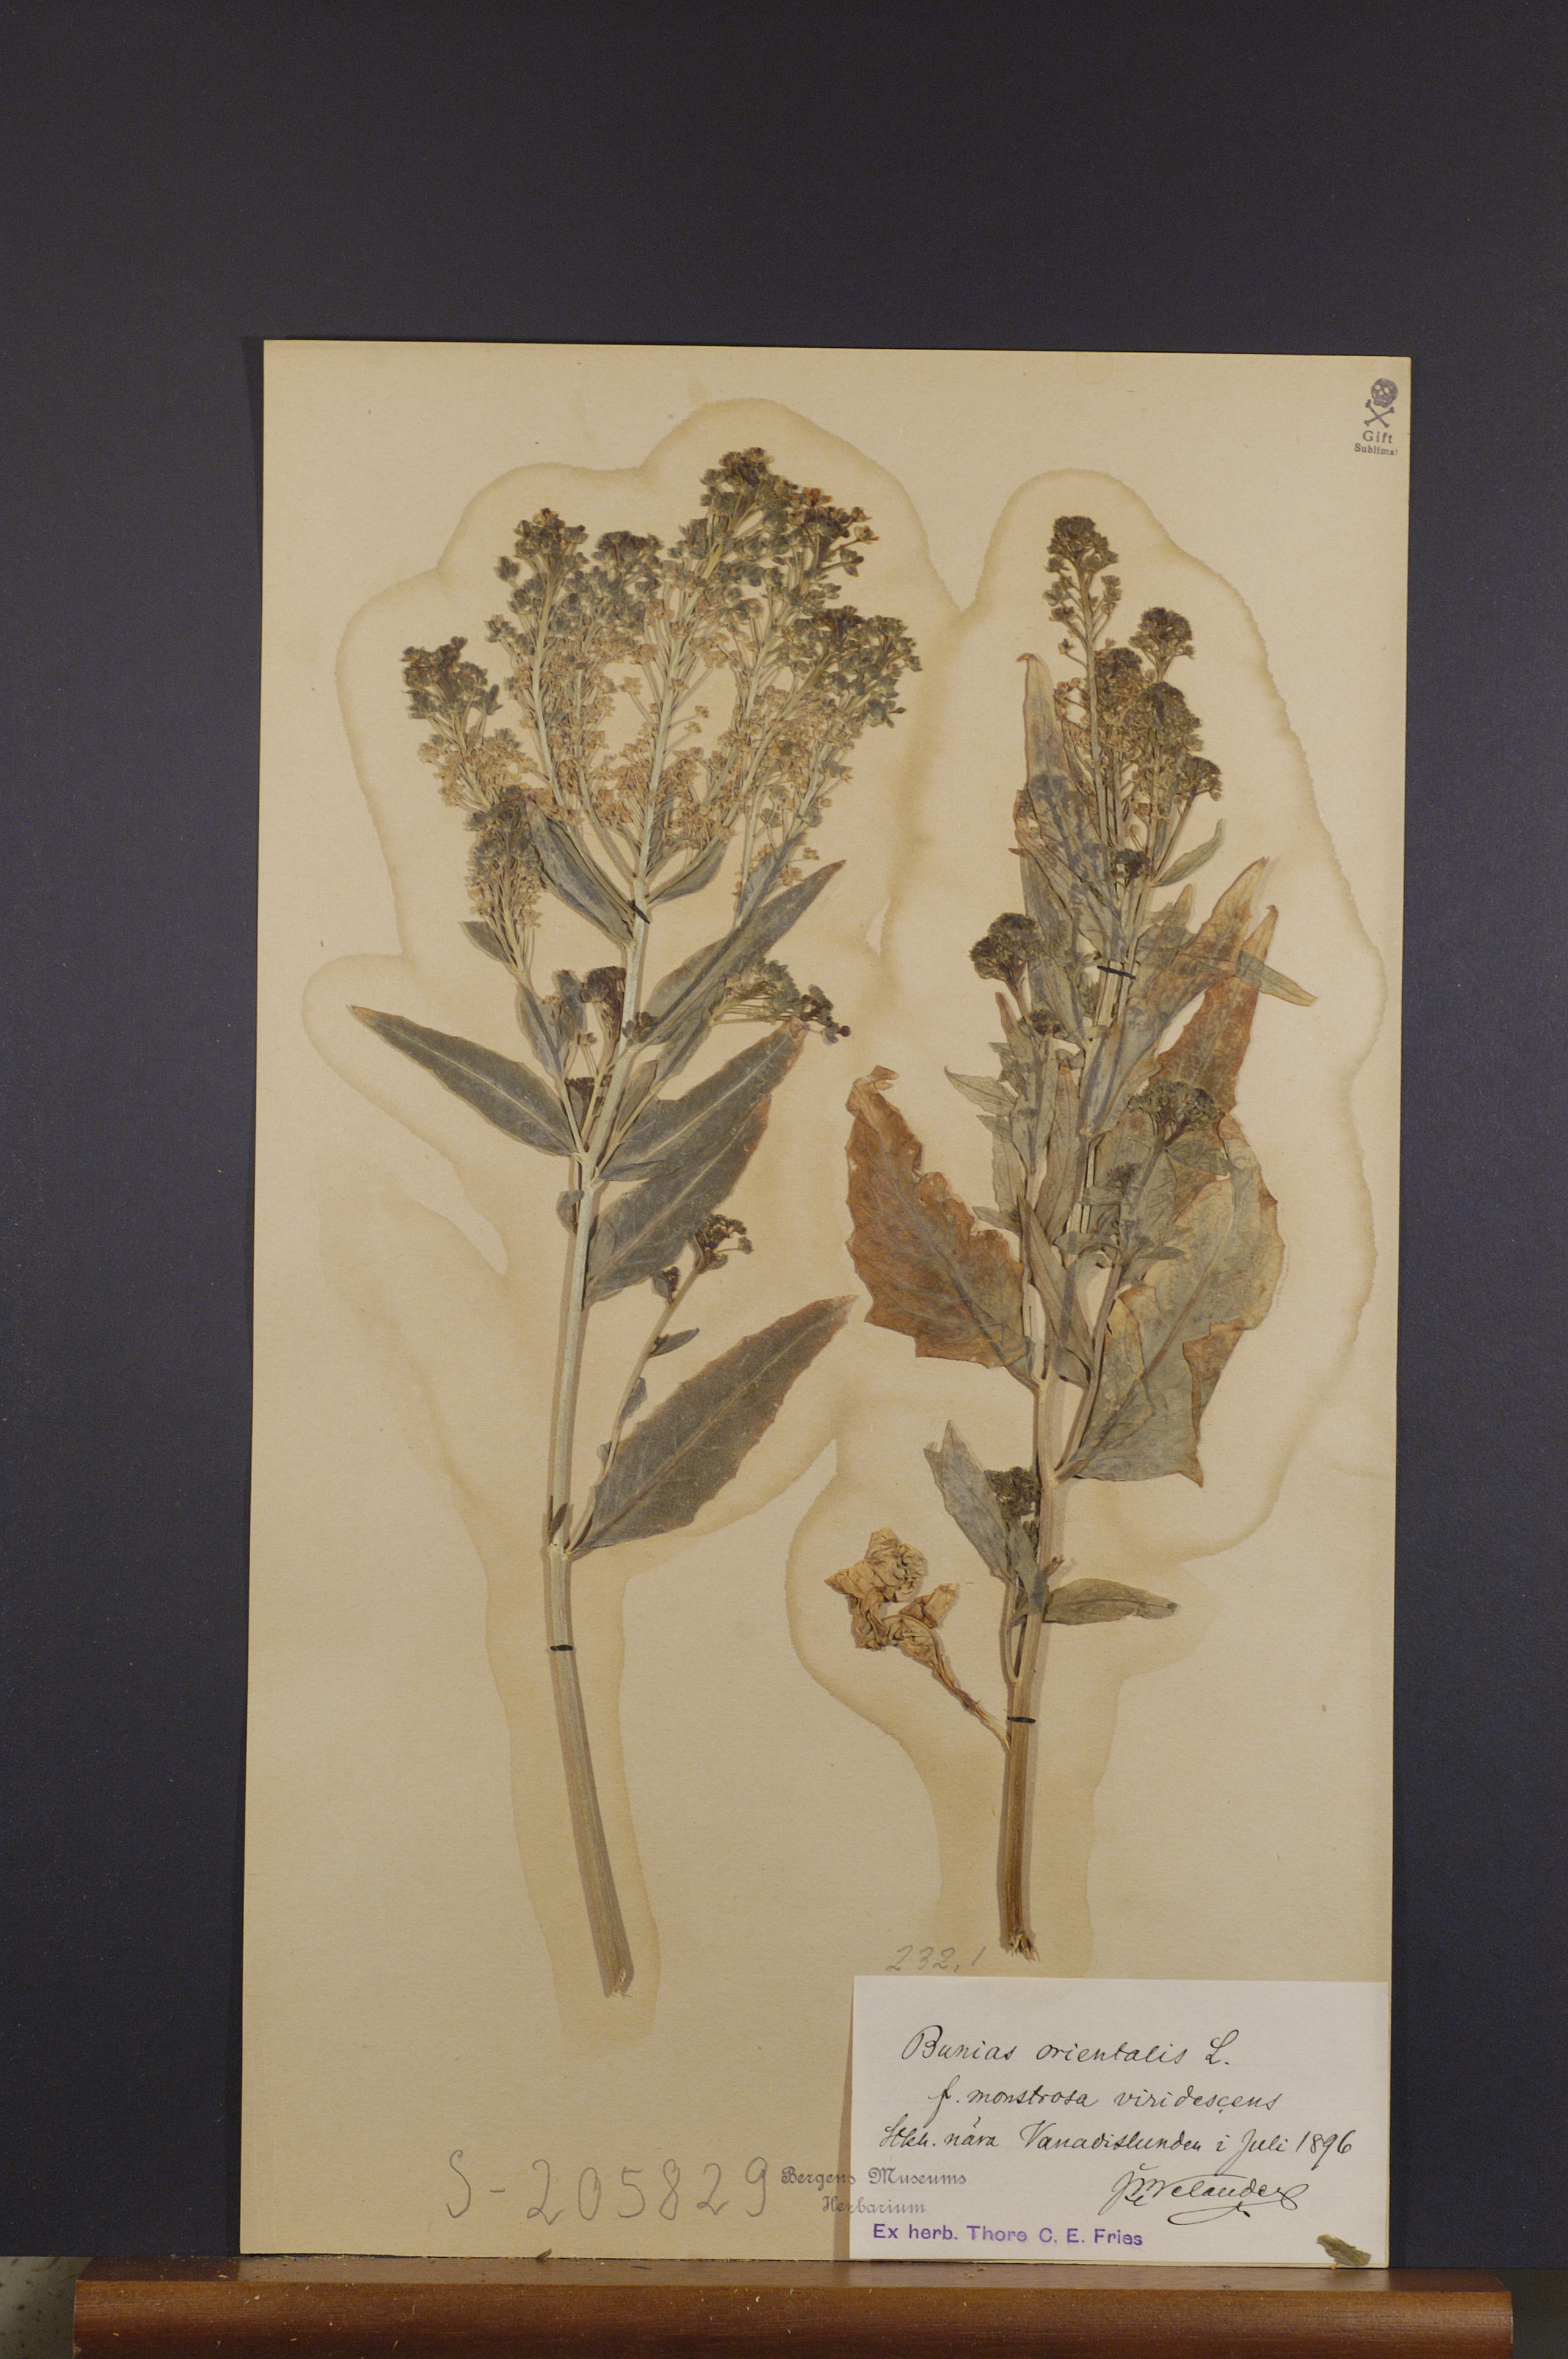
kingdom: Plantae
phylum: Tracheophyta
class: Magnoliopsida
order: Brassicales
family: Brassicaceae
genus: Bunias
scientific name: Bunias orientalis
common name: Warty-cabbage
